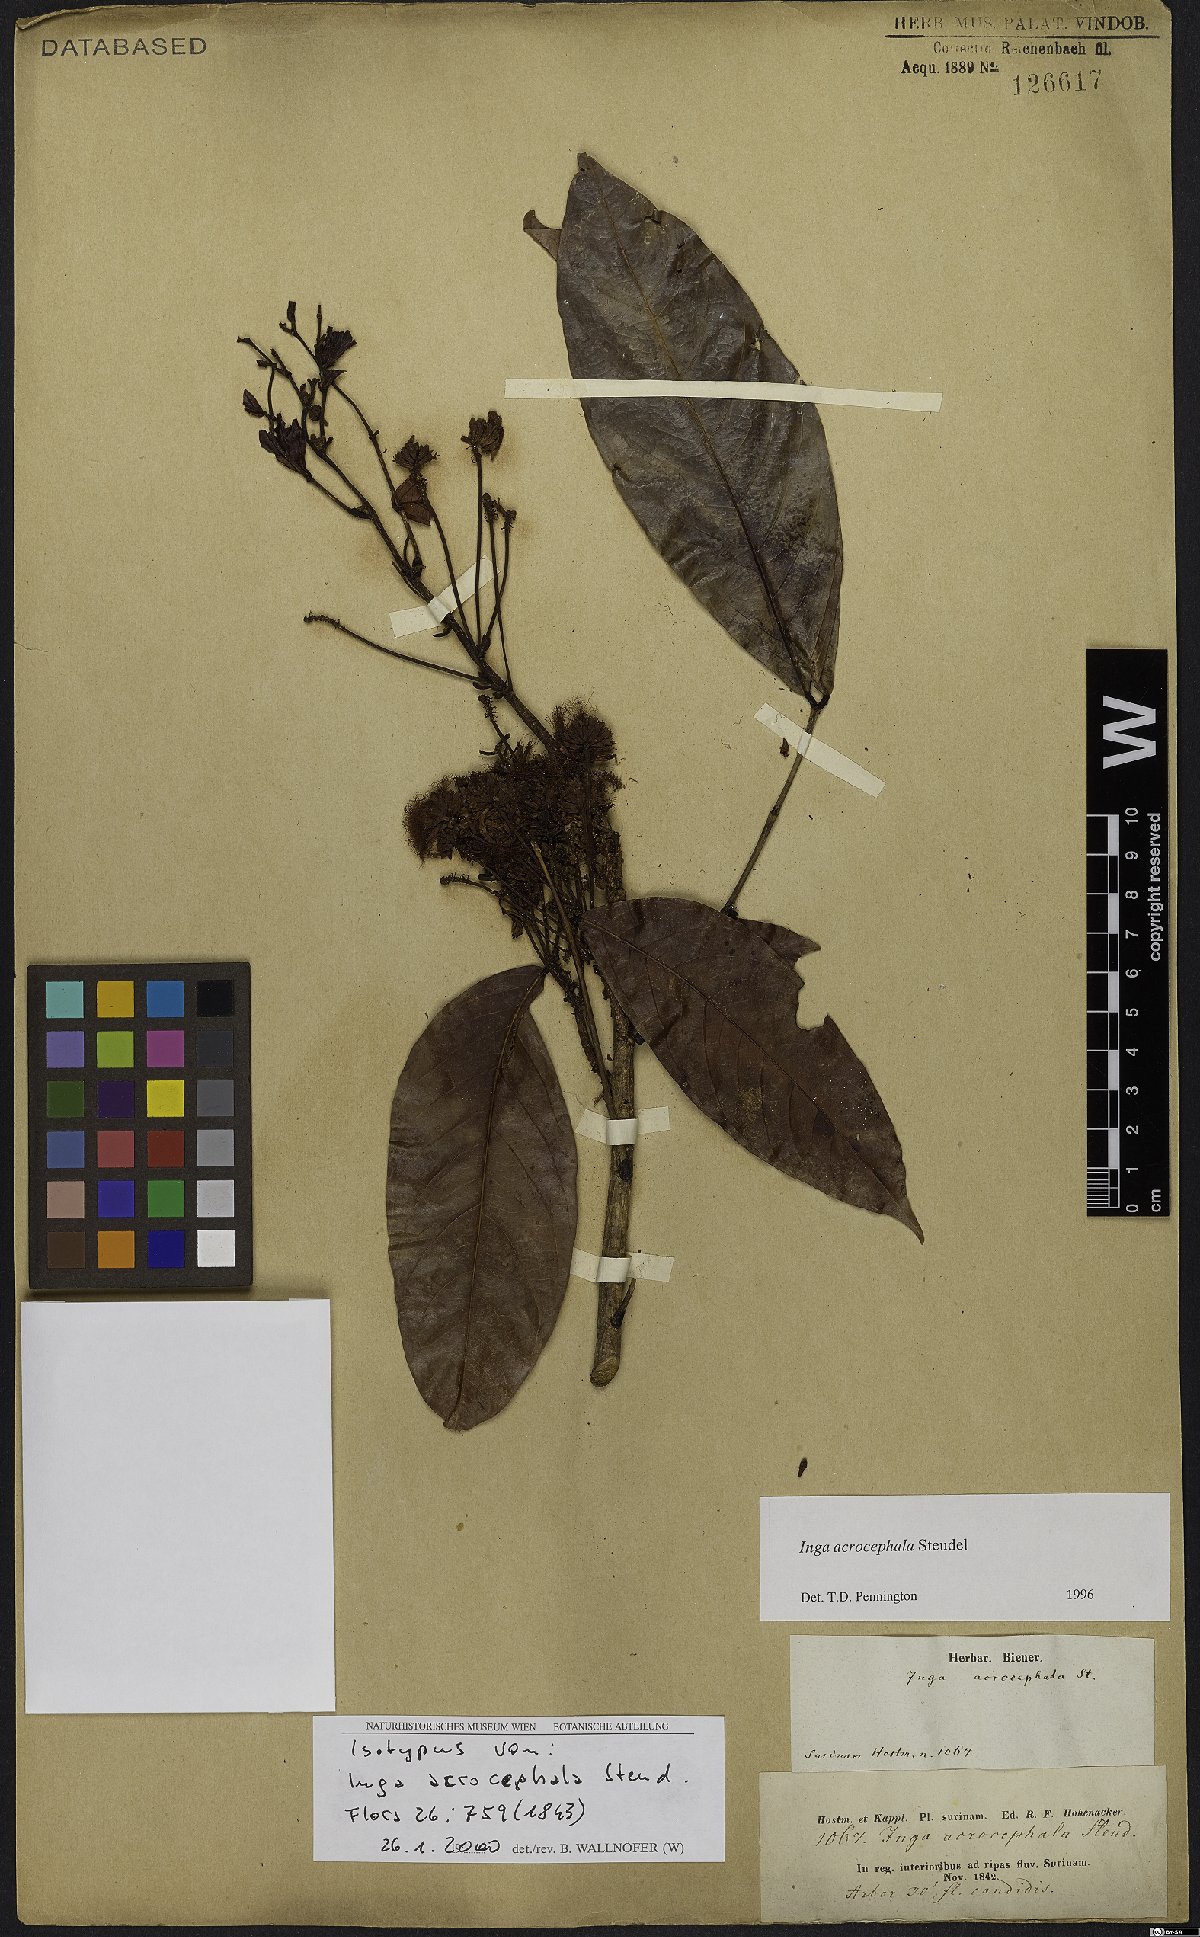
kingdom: Plantae
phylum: Tracheophyta
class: Magnoliopsida
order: Fabales
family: Fabaceae
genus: Inga
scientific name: Inga acrocephala
